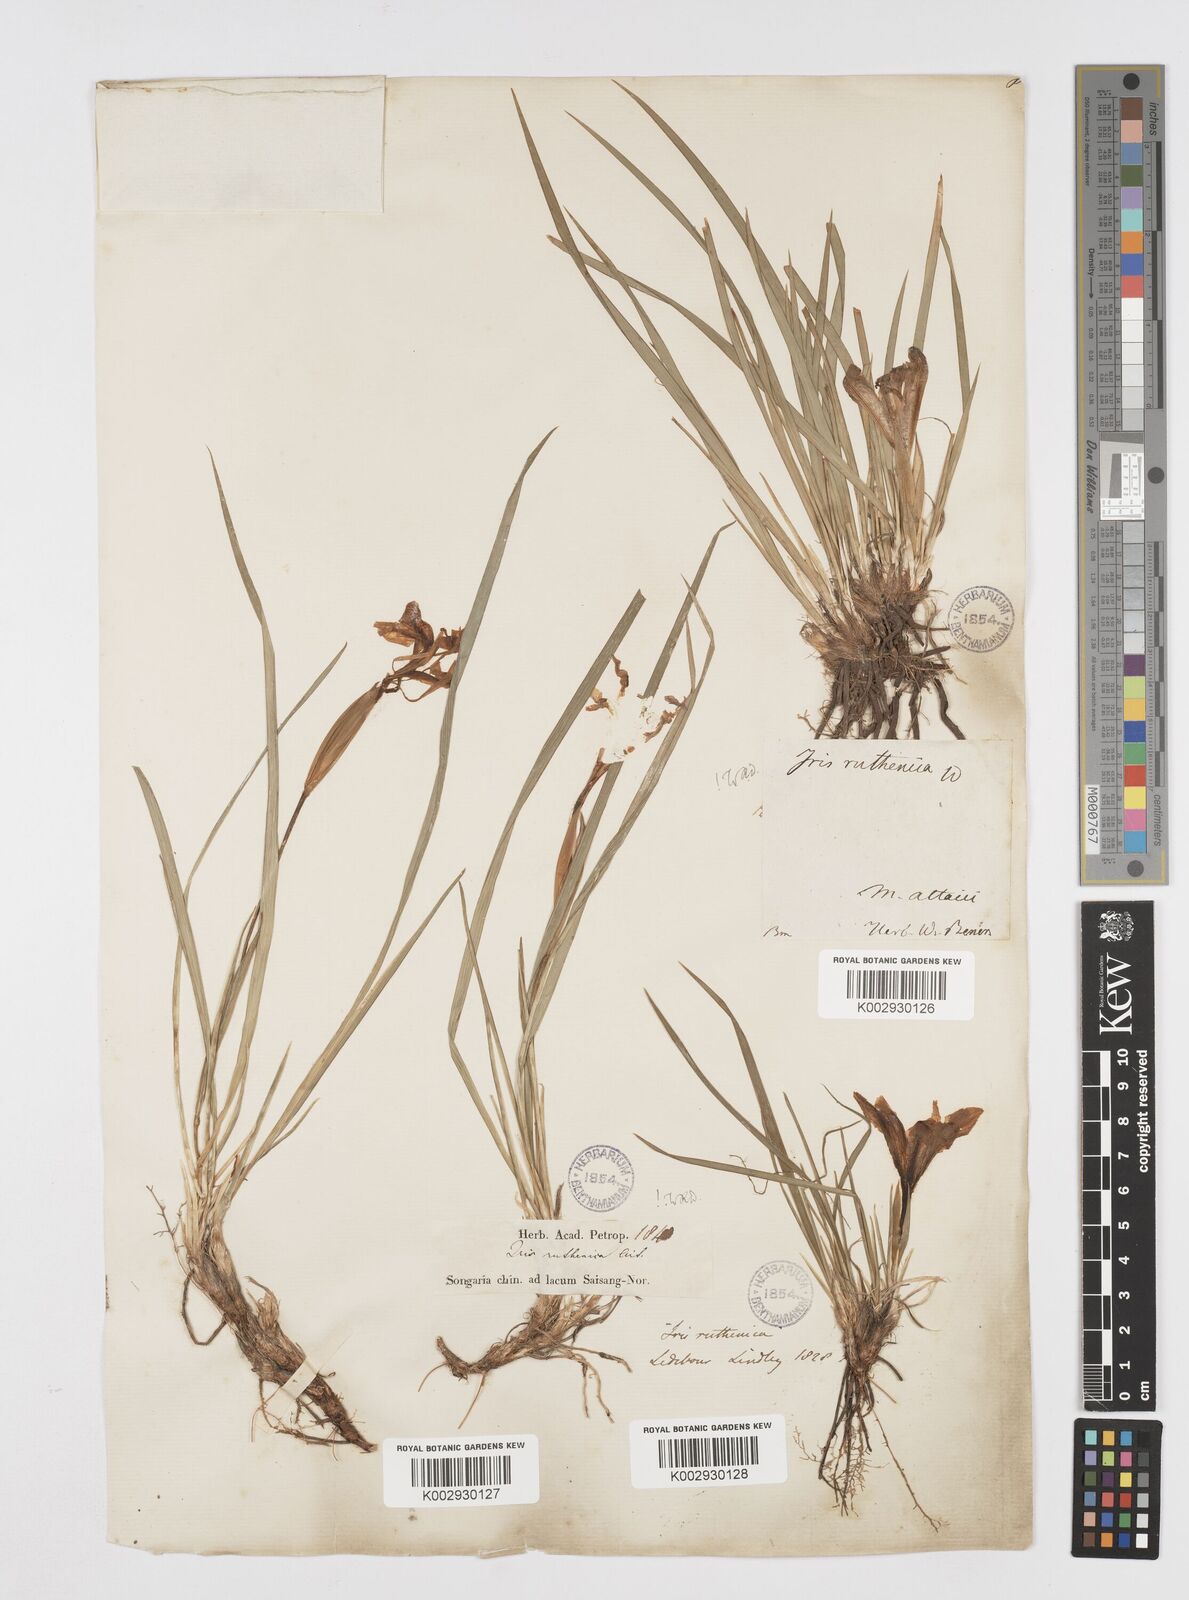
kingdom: Plantae
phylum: Tracheophyta
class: Liliopsida
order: Asparagales
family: Iridaceae
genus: Iris
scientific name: Iris ruthenica
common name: Purple-bract iris
